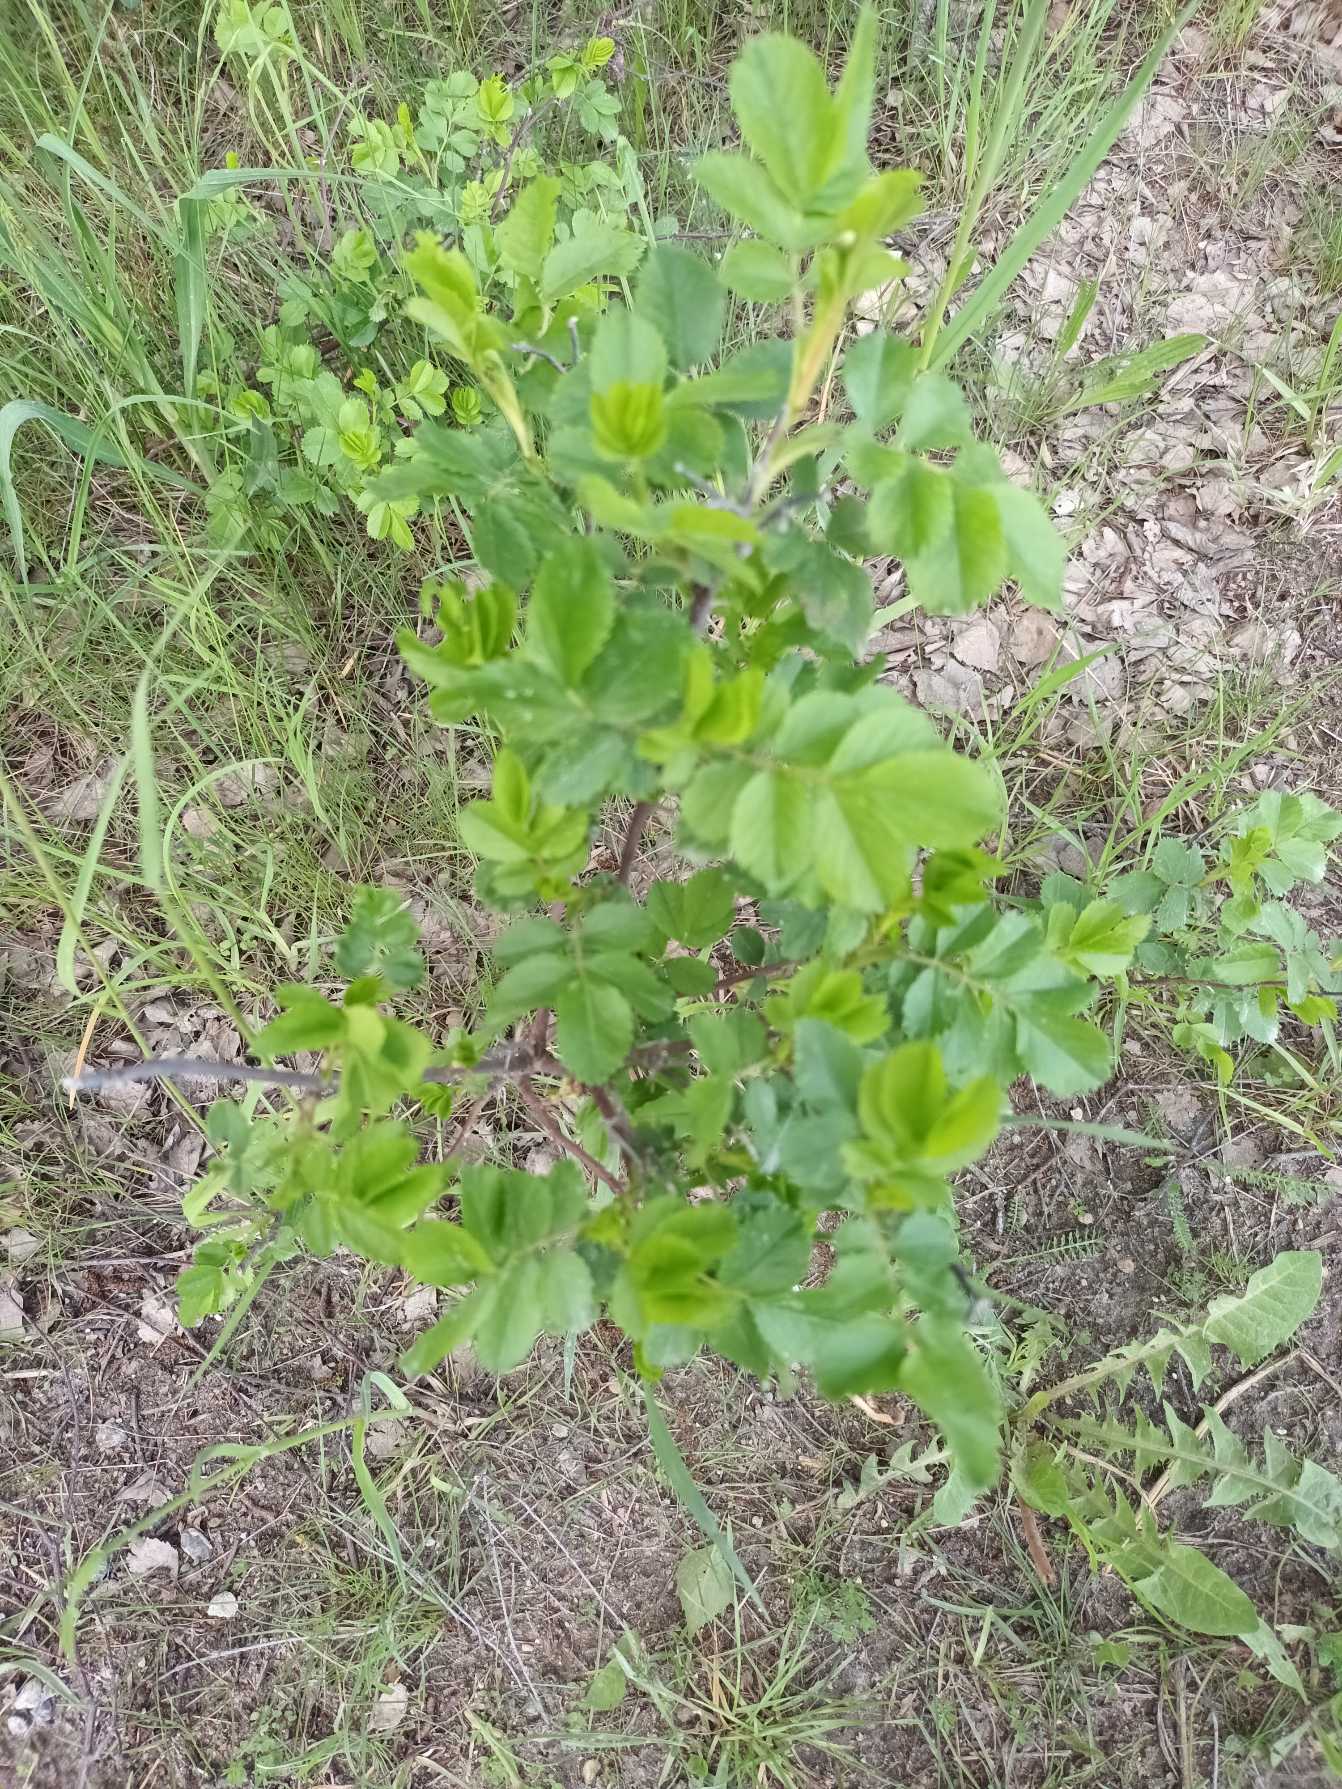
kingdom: Plantae
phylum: Tracheophyta
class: Magnoliopsida
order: Rosales
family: Rosaceae
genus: Rosa
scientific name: Rosa rugosa
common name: Rynket rose
